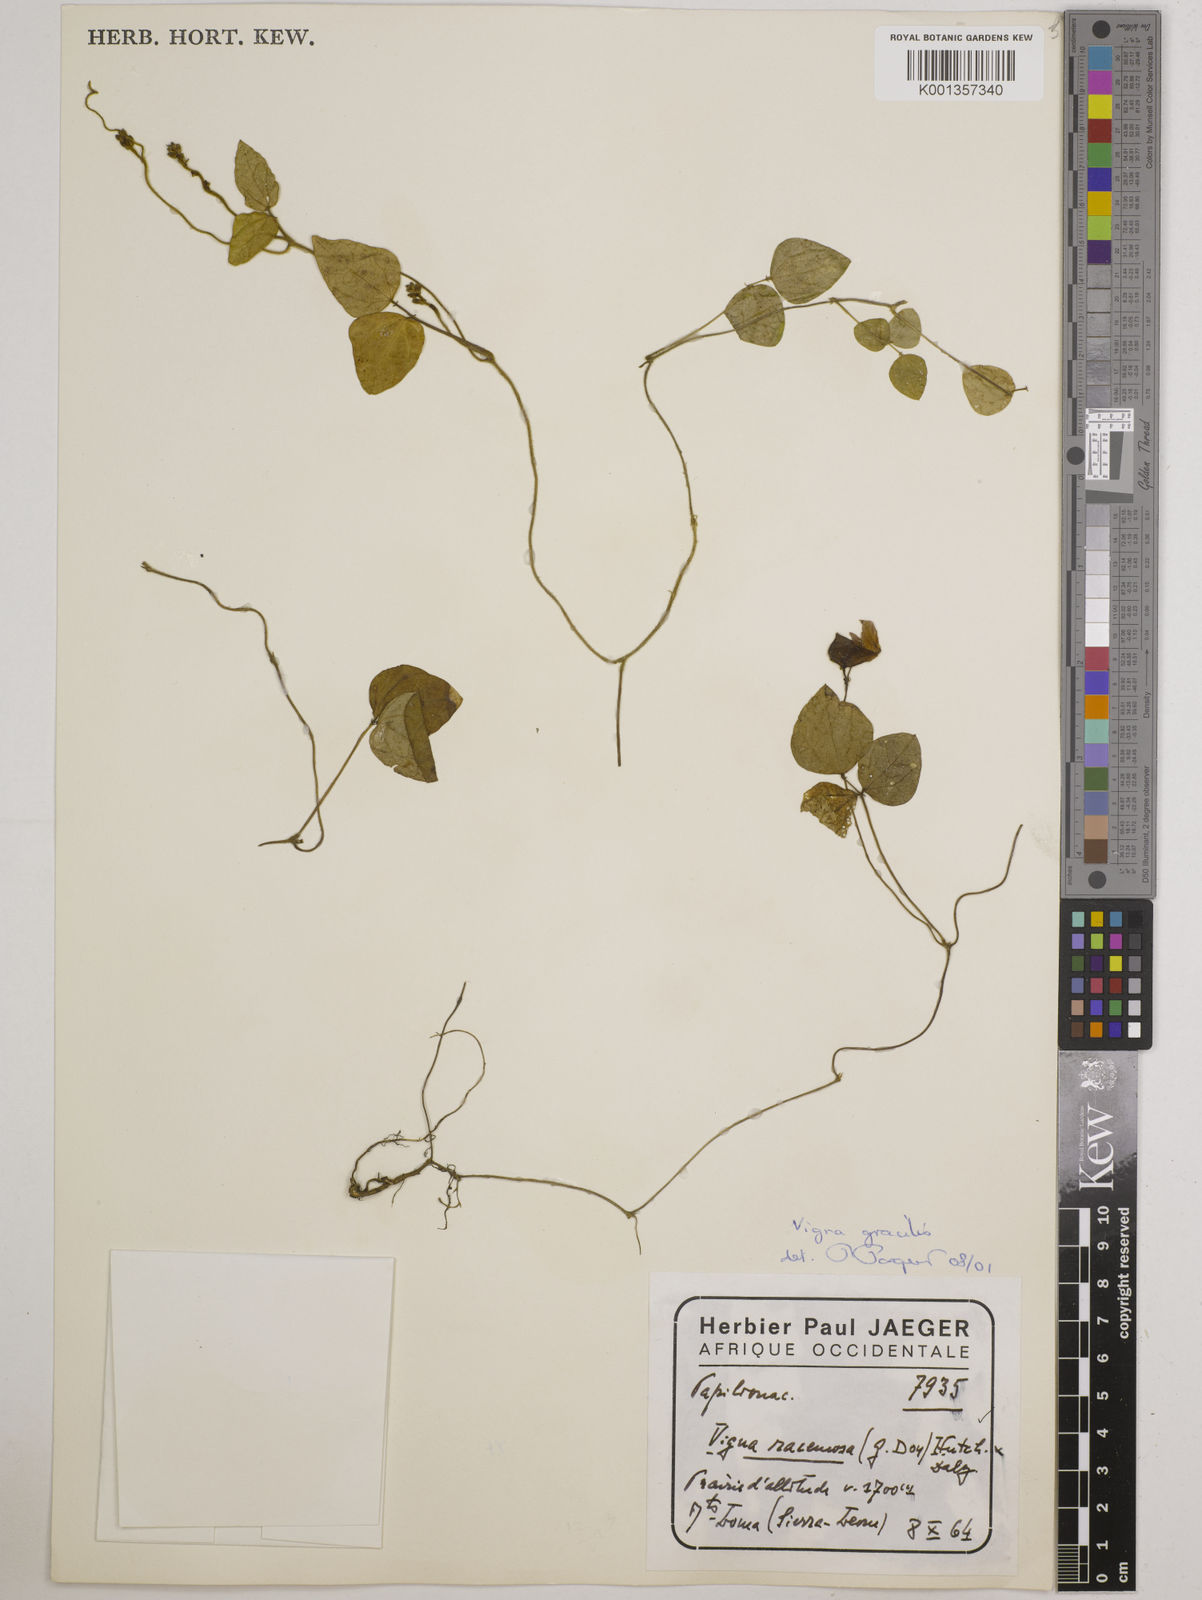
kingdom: Plantae
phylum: Tracheophyta
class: Magnoliopsida
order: Fabales
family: Fabaceae
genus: Vigna
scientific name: Vigna gracilis
